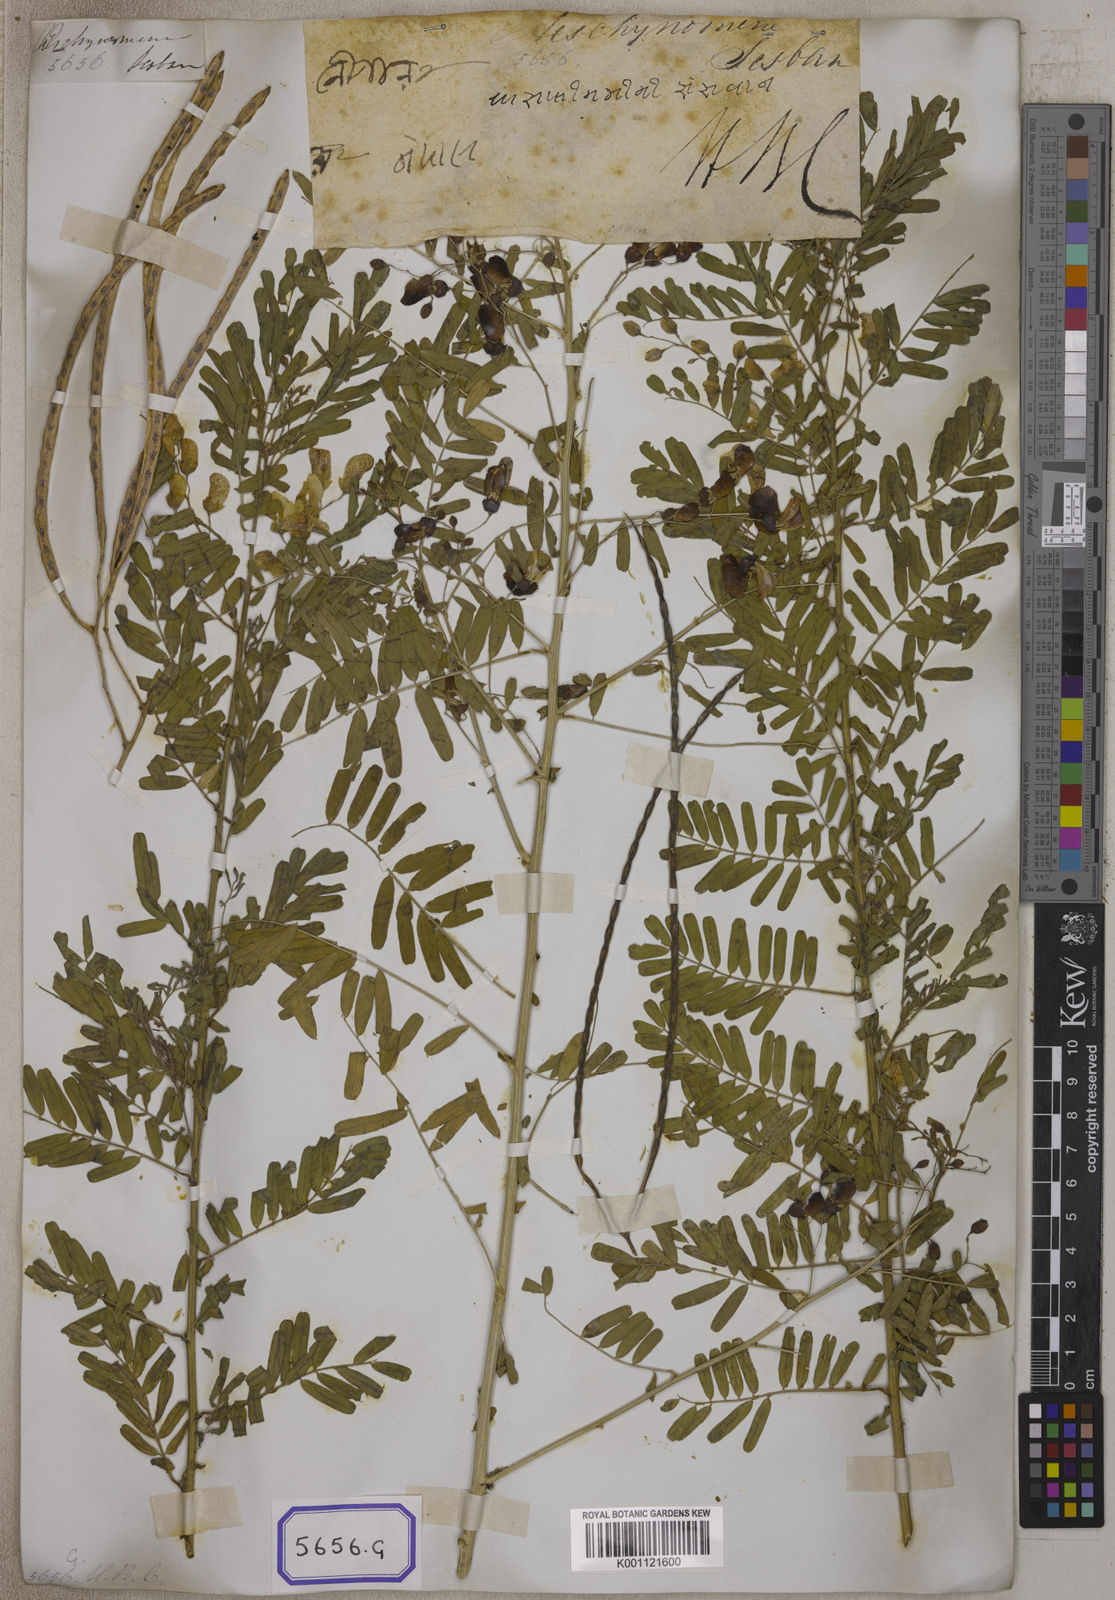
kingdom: Plantae
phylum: Tracheophyta
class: Magnoliopsida
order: Fabales
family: Fabaceae
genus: Sesbania
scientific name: Sesbania
